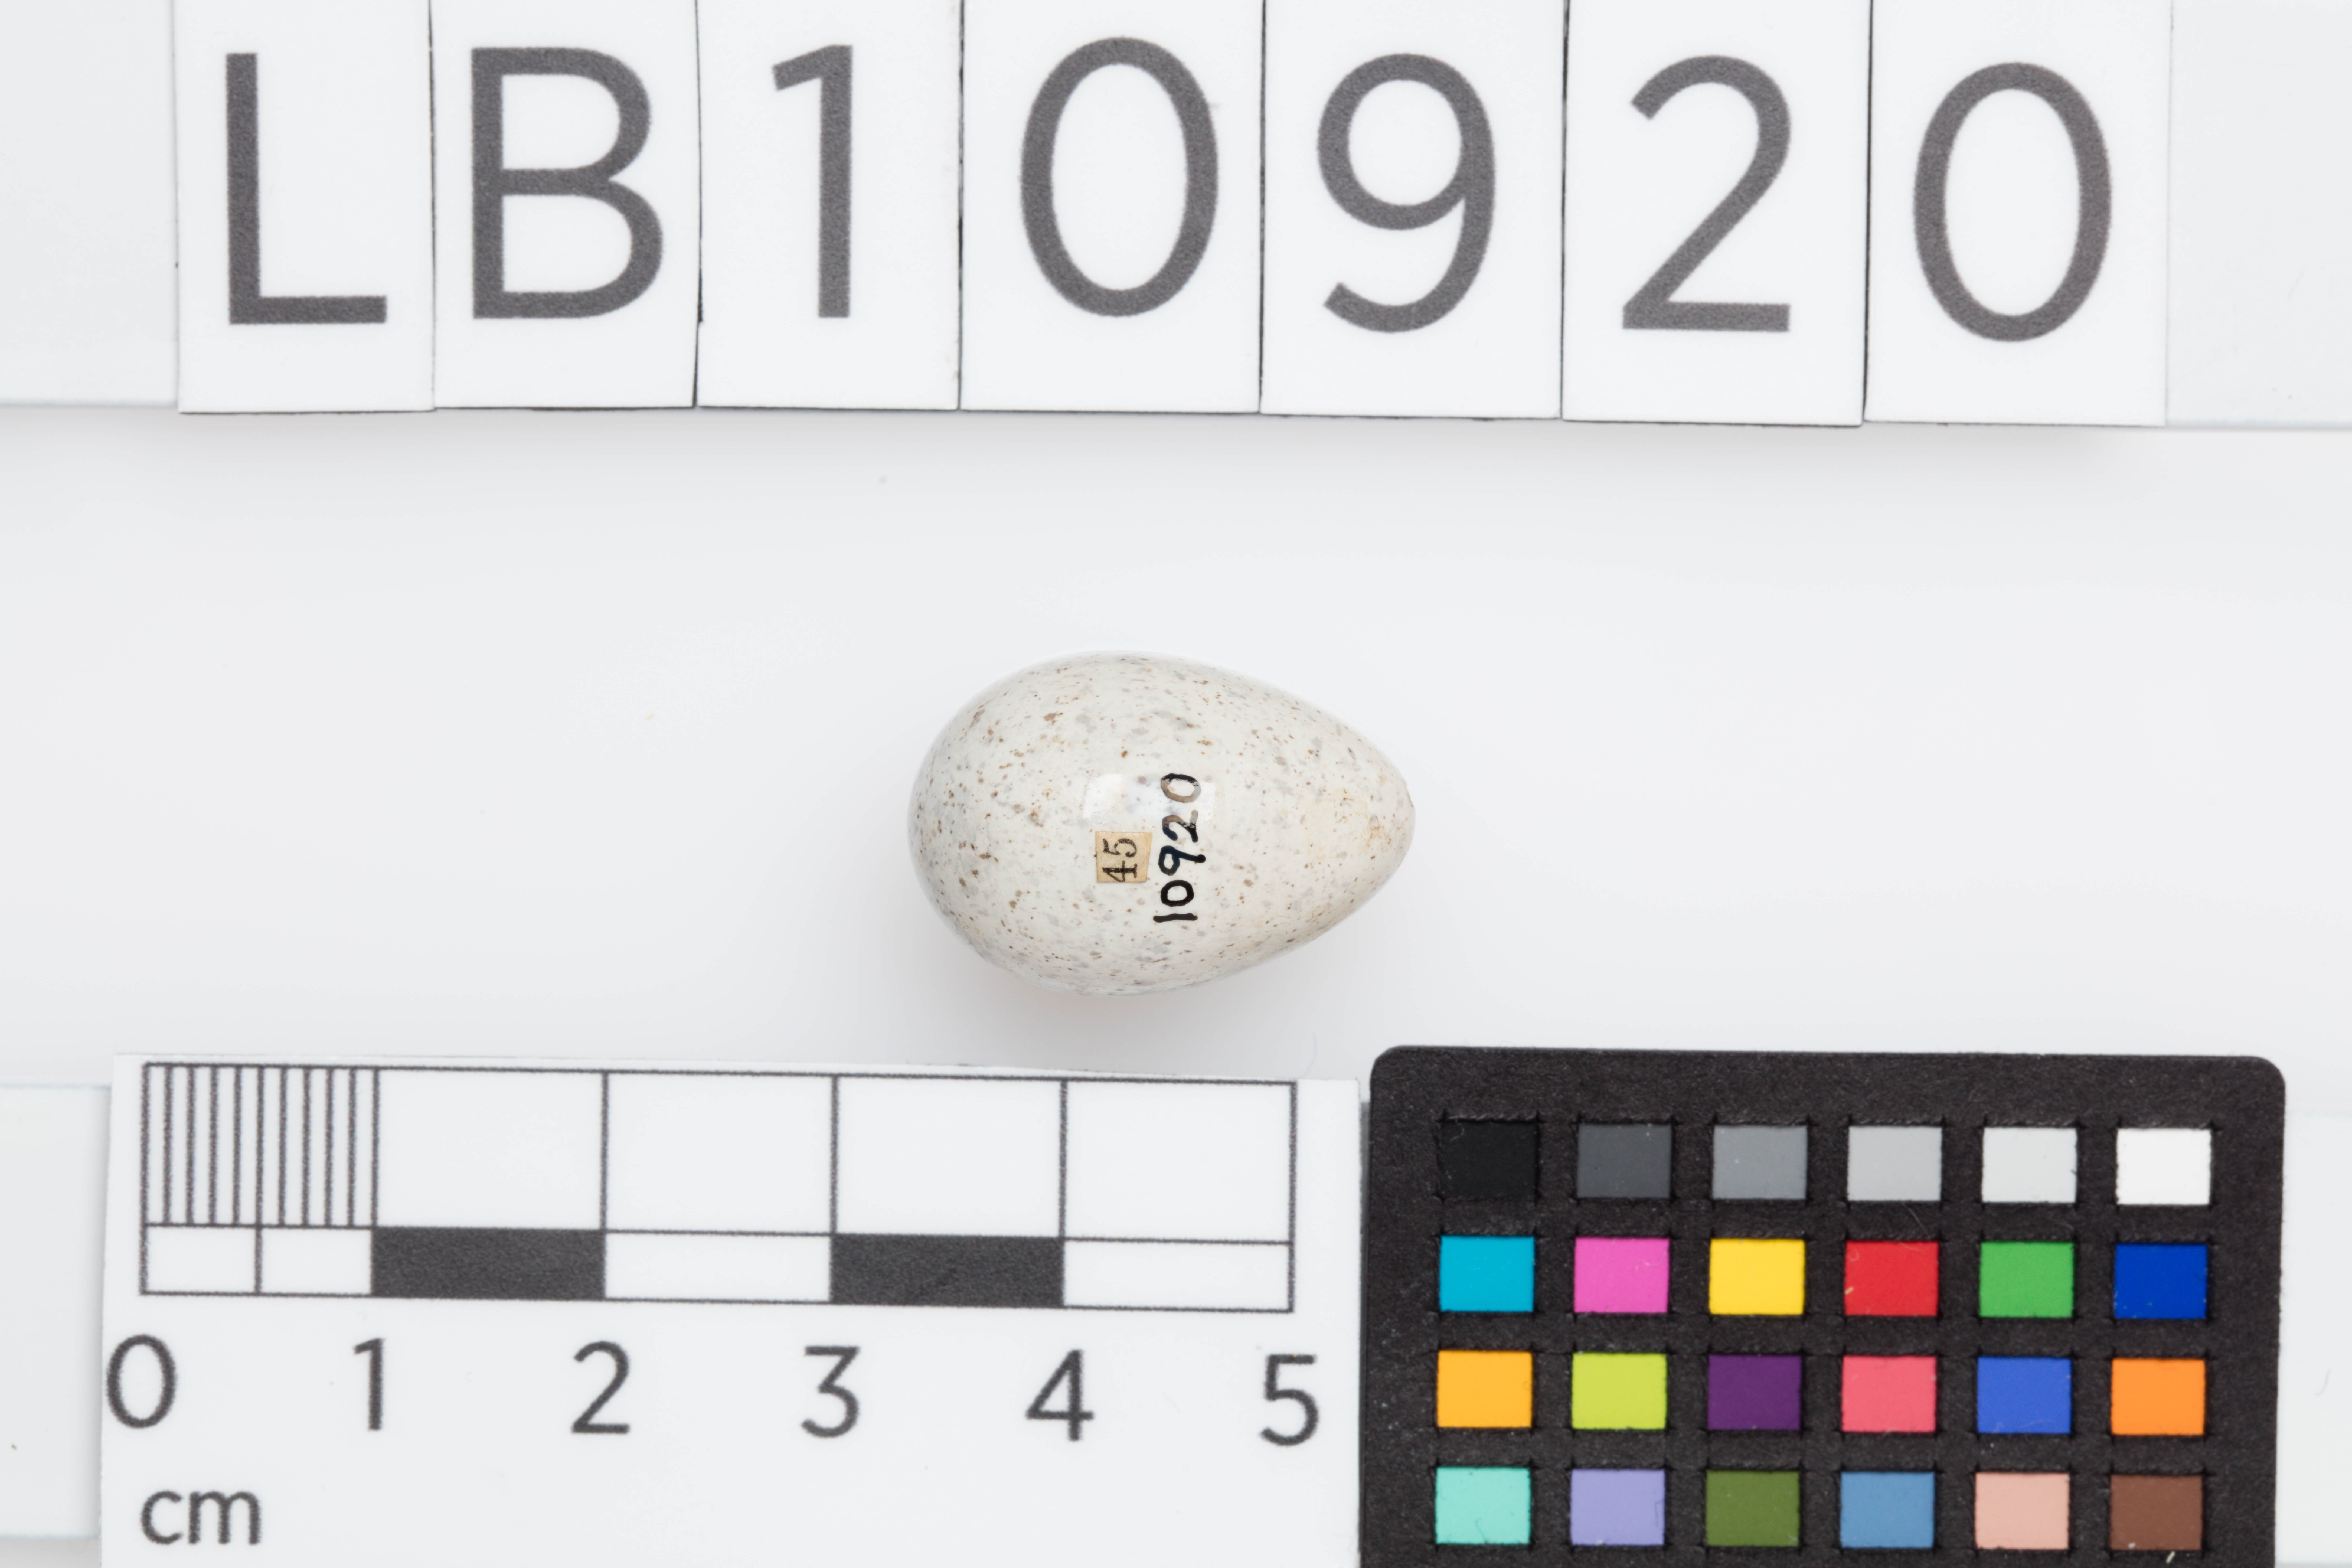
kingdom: Animalia
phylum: Chordata
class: Aves
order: Passeriformes
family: Motacillidae
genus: Motacilla
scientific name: Motacilla alba
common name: White wagtail
